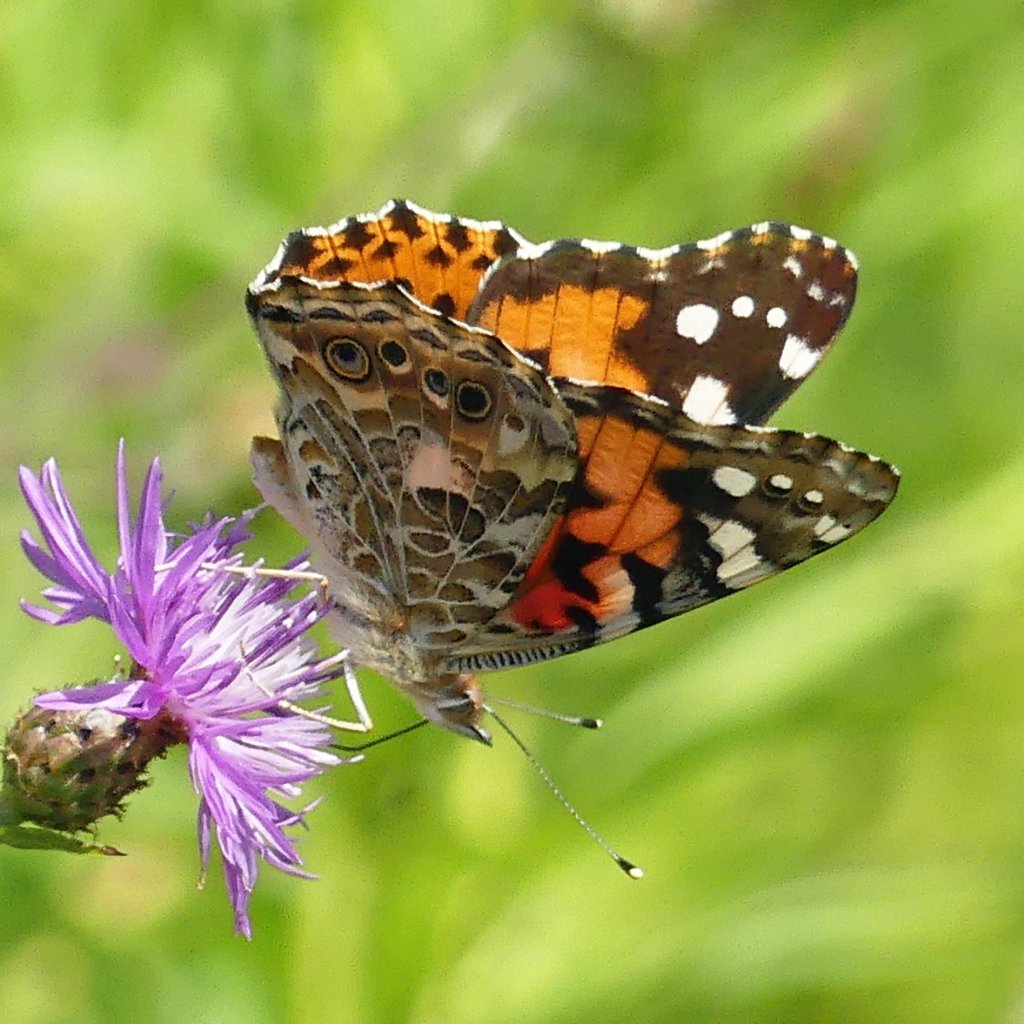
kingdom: Animalia
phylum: Arthropoda
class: Insecta
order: Lepidoptera
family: Nymphalidae
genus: Vanessa
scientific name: Vanessa cardui
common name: Painted Lady
